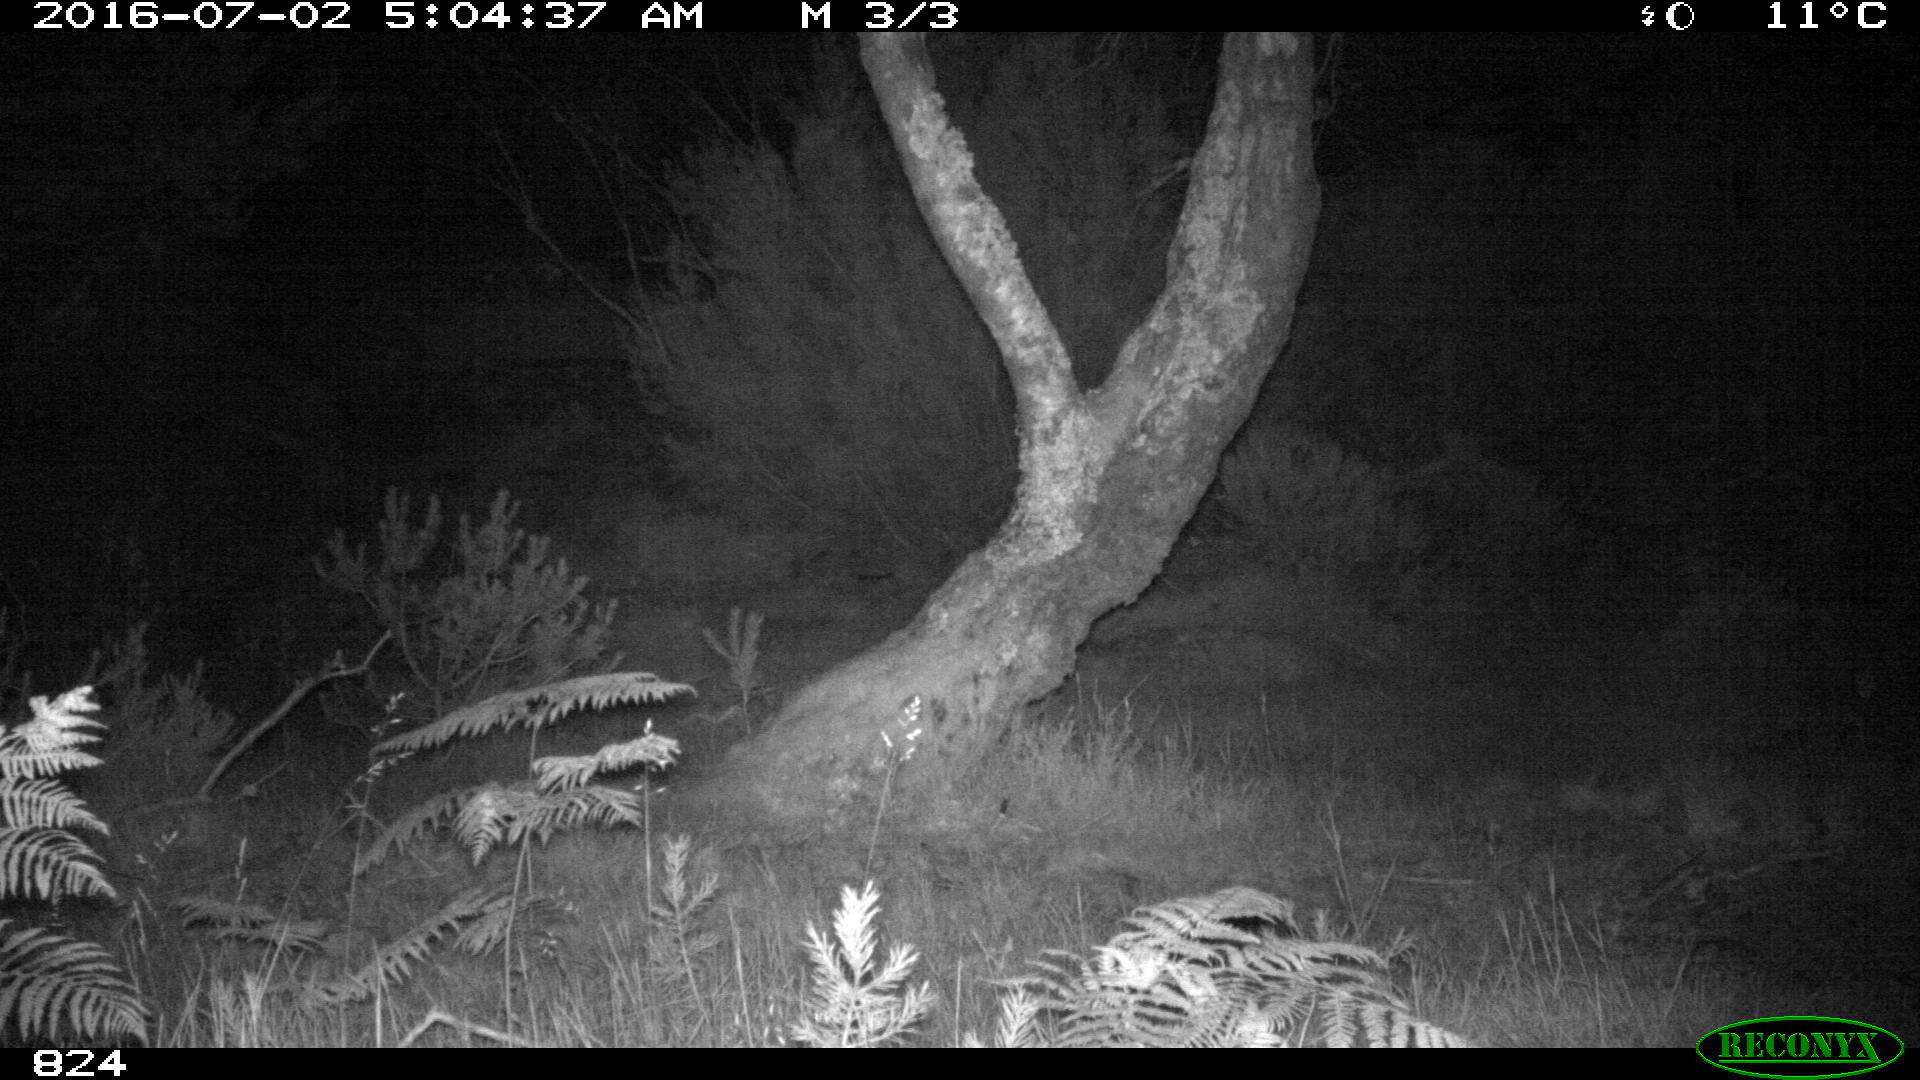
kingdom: Animalia
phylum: Chordata
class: Mammalia
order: Carnivora
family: Canidae
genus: Canis
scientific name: Canis lupus
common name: Gray wolf
